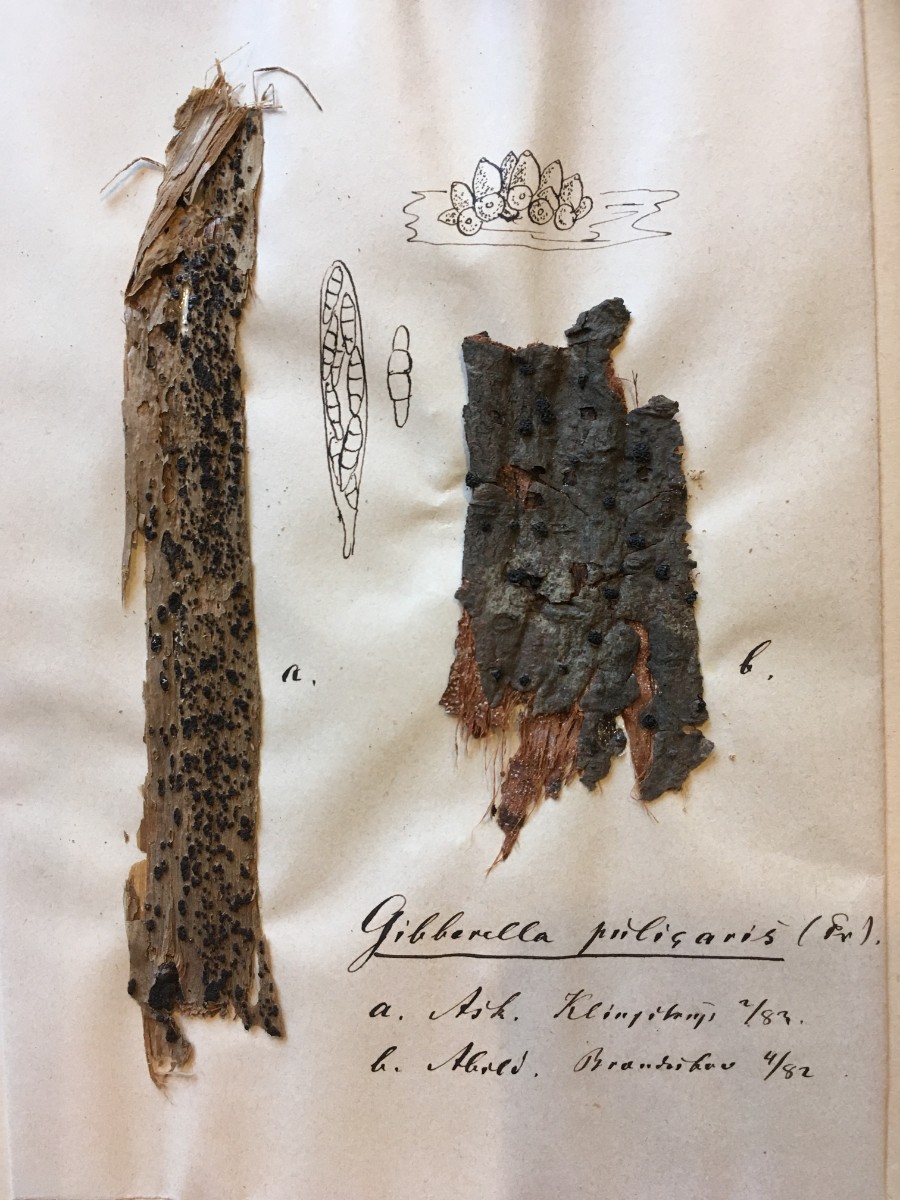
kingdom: Fungi
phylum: Ascomycota
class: Sordariomycetes
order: Hypocreales
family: Nectriaceae
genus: Fusarium
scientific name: Fusarium roseum
